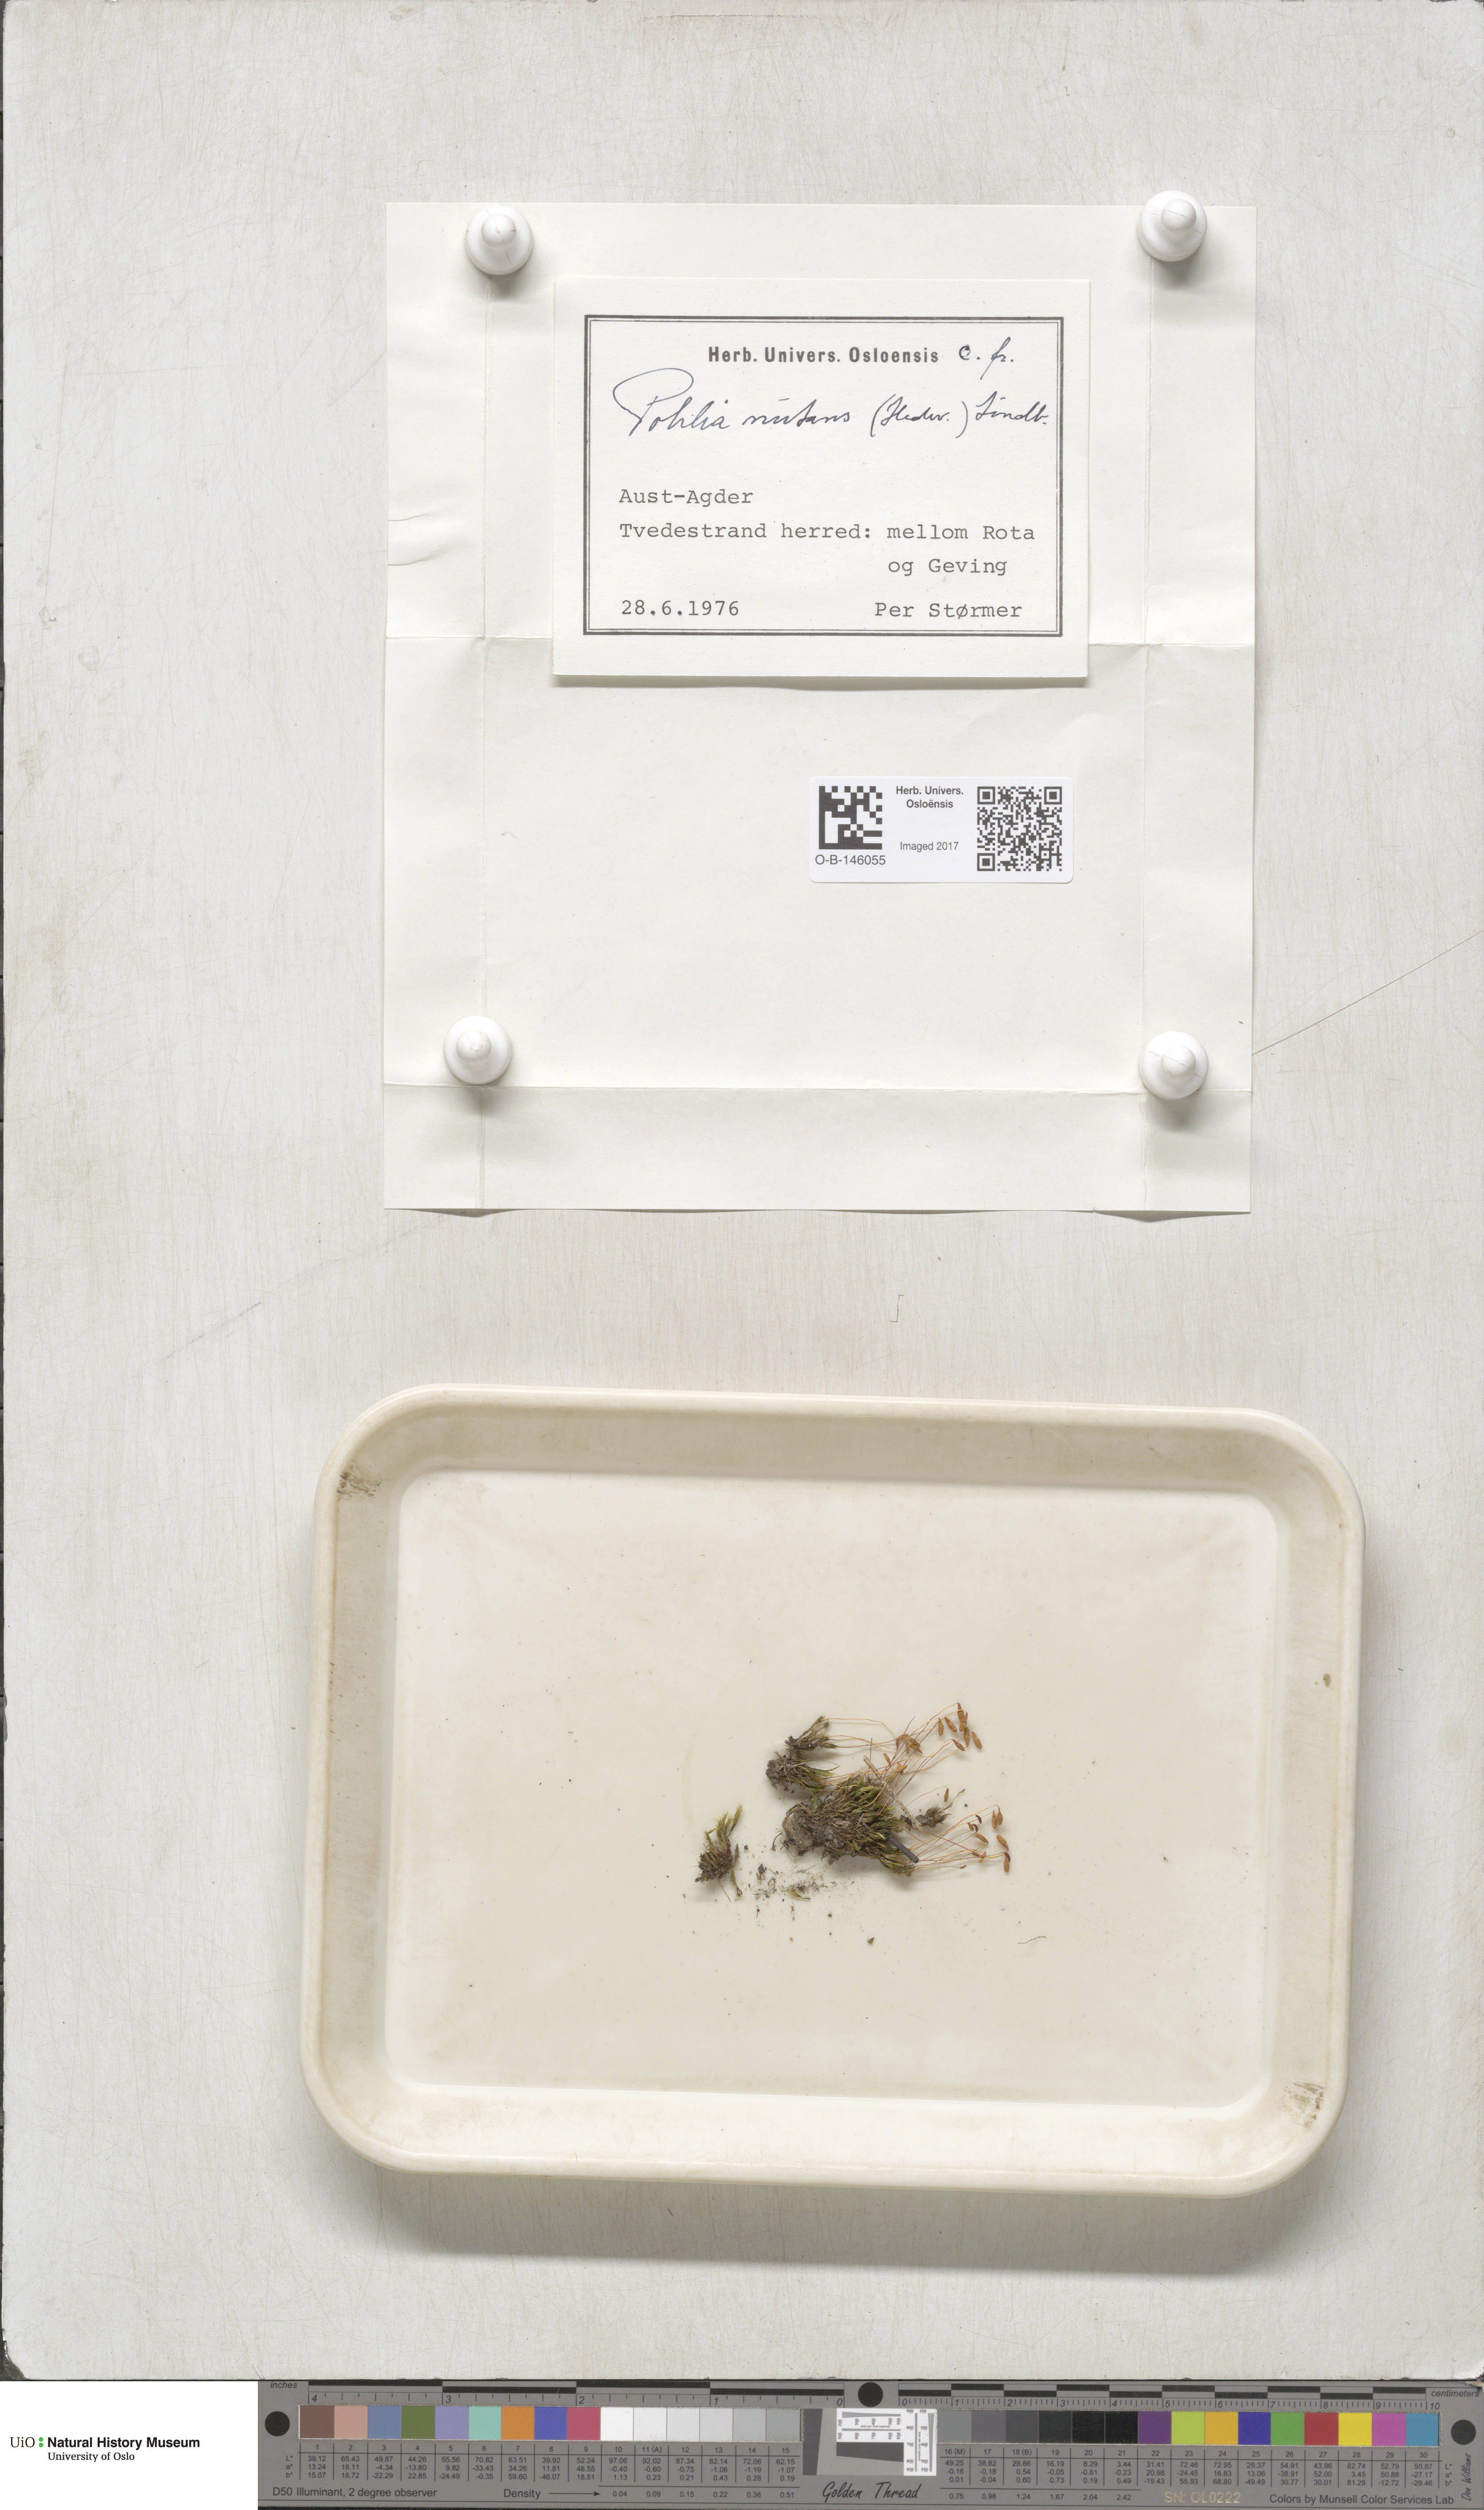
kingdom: Plantae
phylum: Bryophyta
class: Bryopsida
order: Bryales
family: Mniaceae
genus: Pohlia
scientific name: Pohlia nutans
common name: Nodding thread-moss
